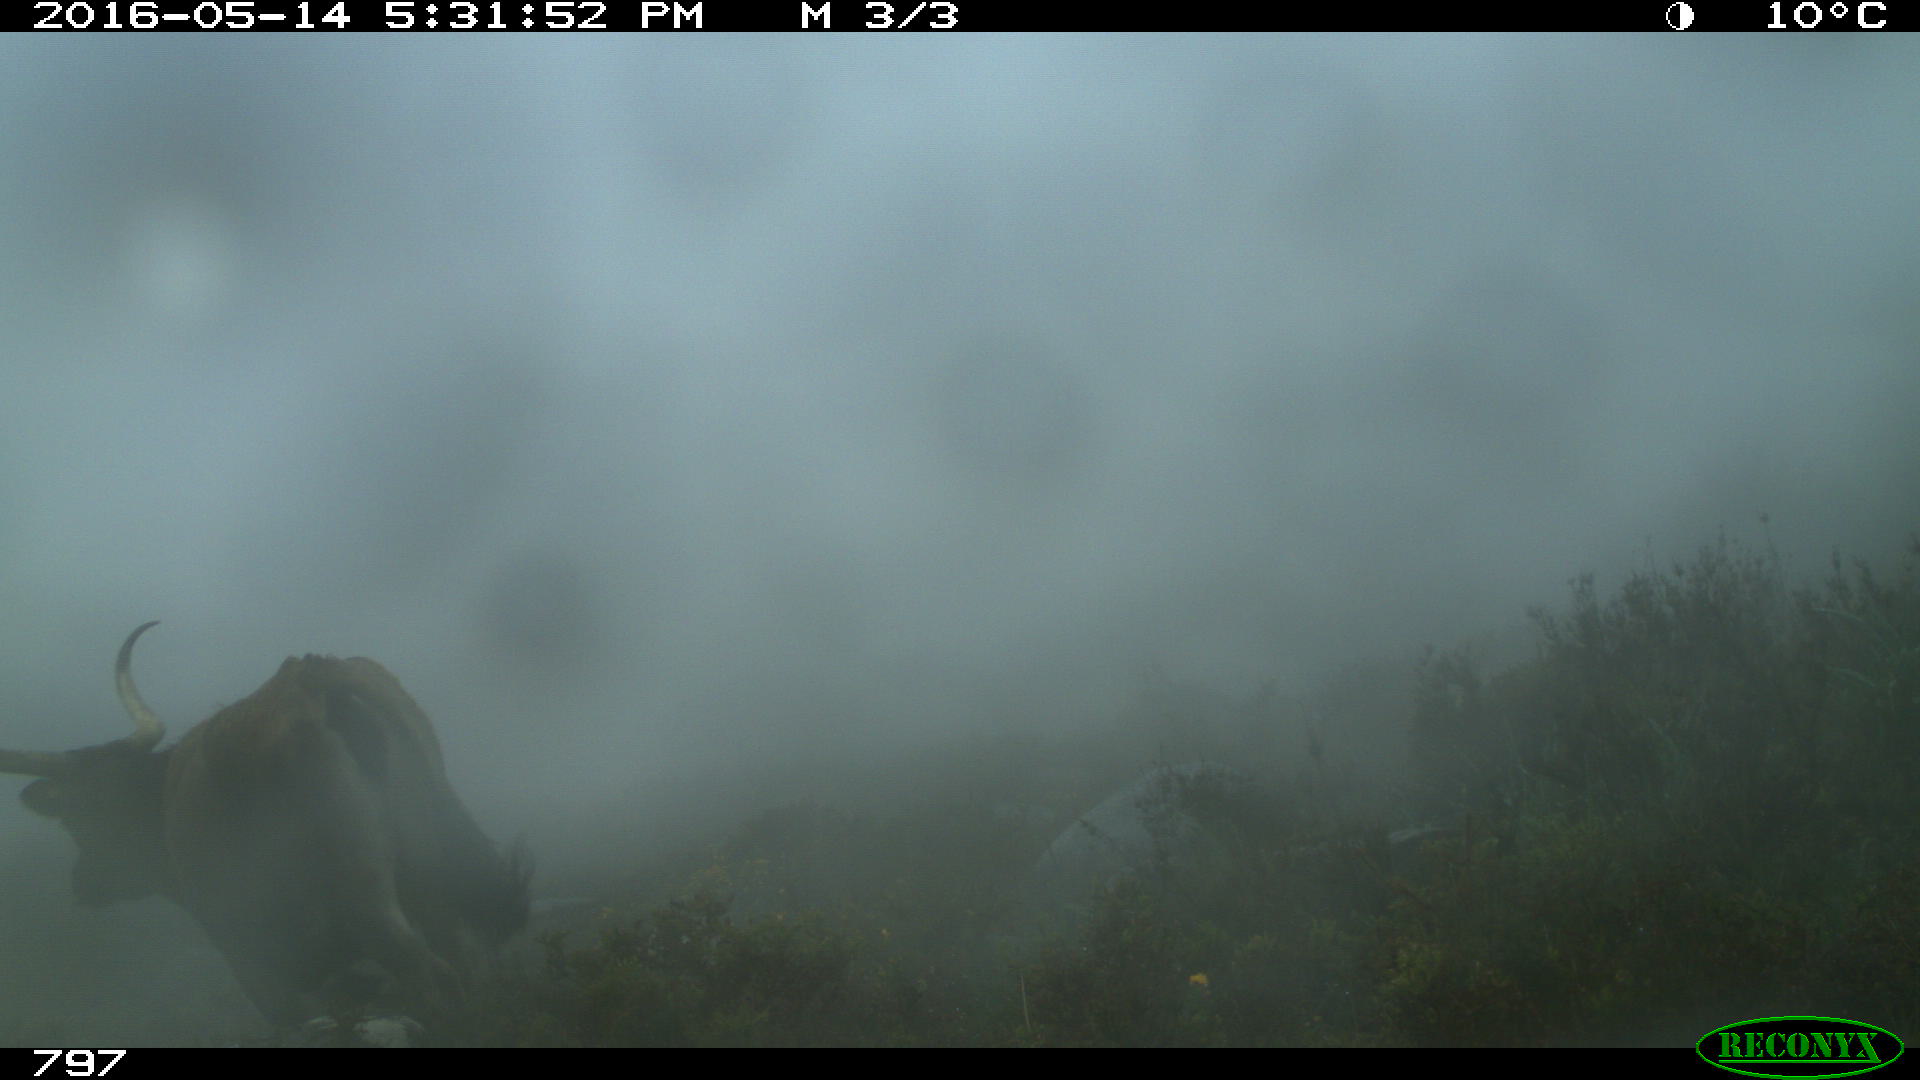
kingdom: Animalia
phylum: Chordata
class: Mammalia
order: Artiodactyla
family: Bovidae
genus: Bos
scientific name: Bos taurus
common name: Domesticated cattle
